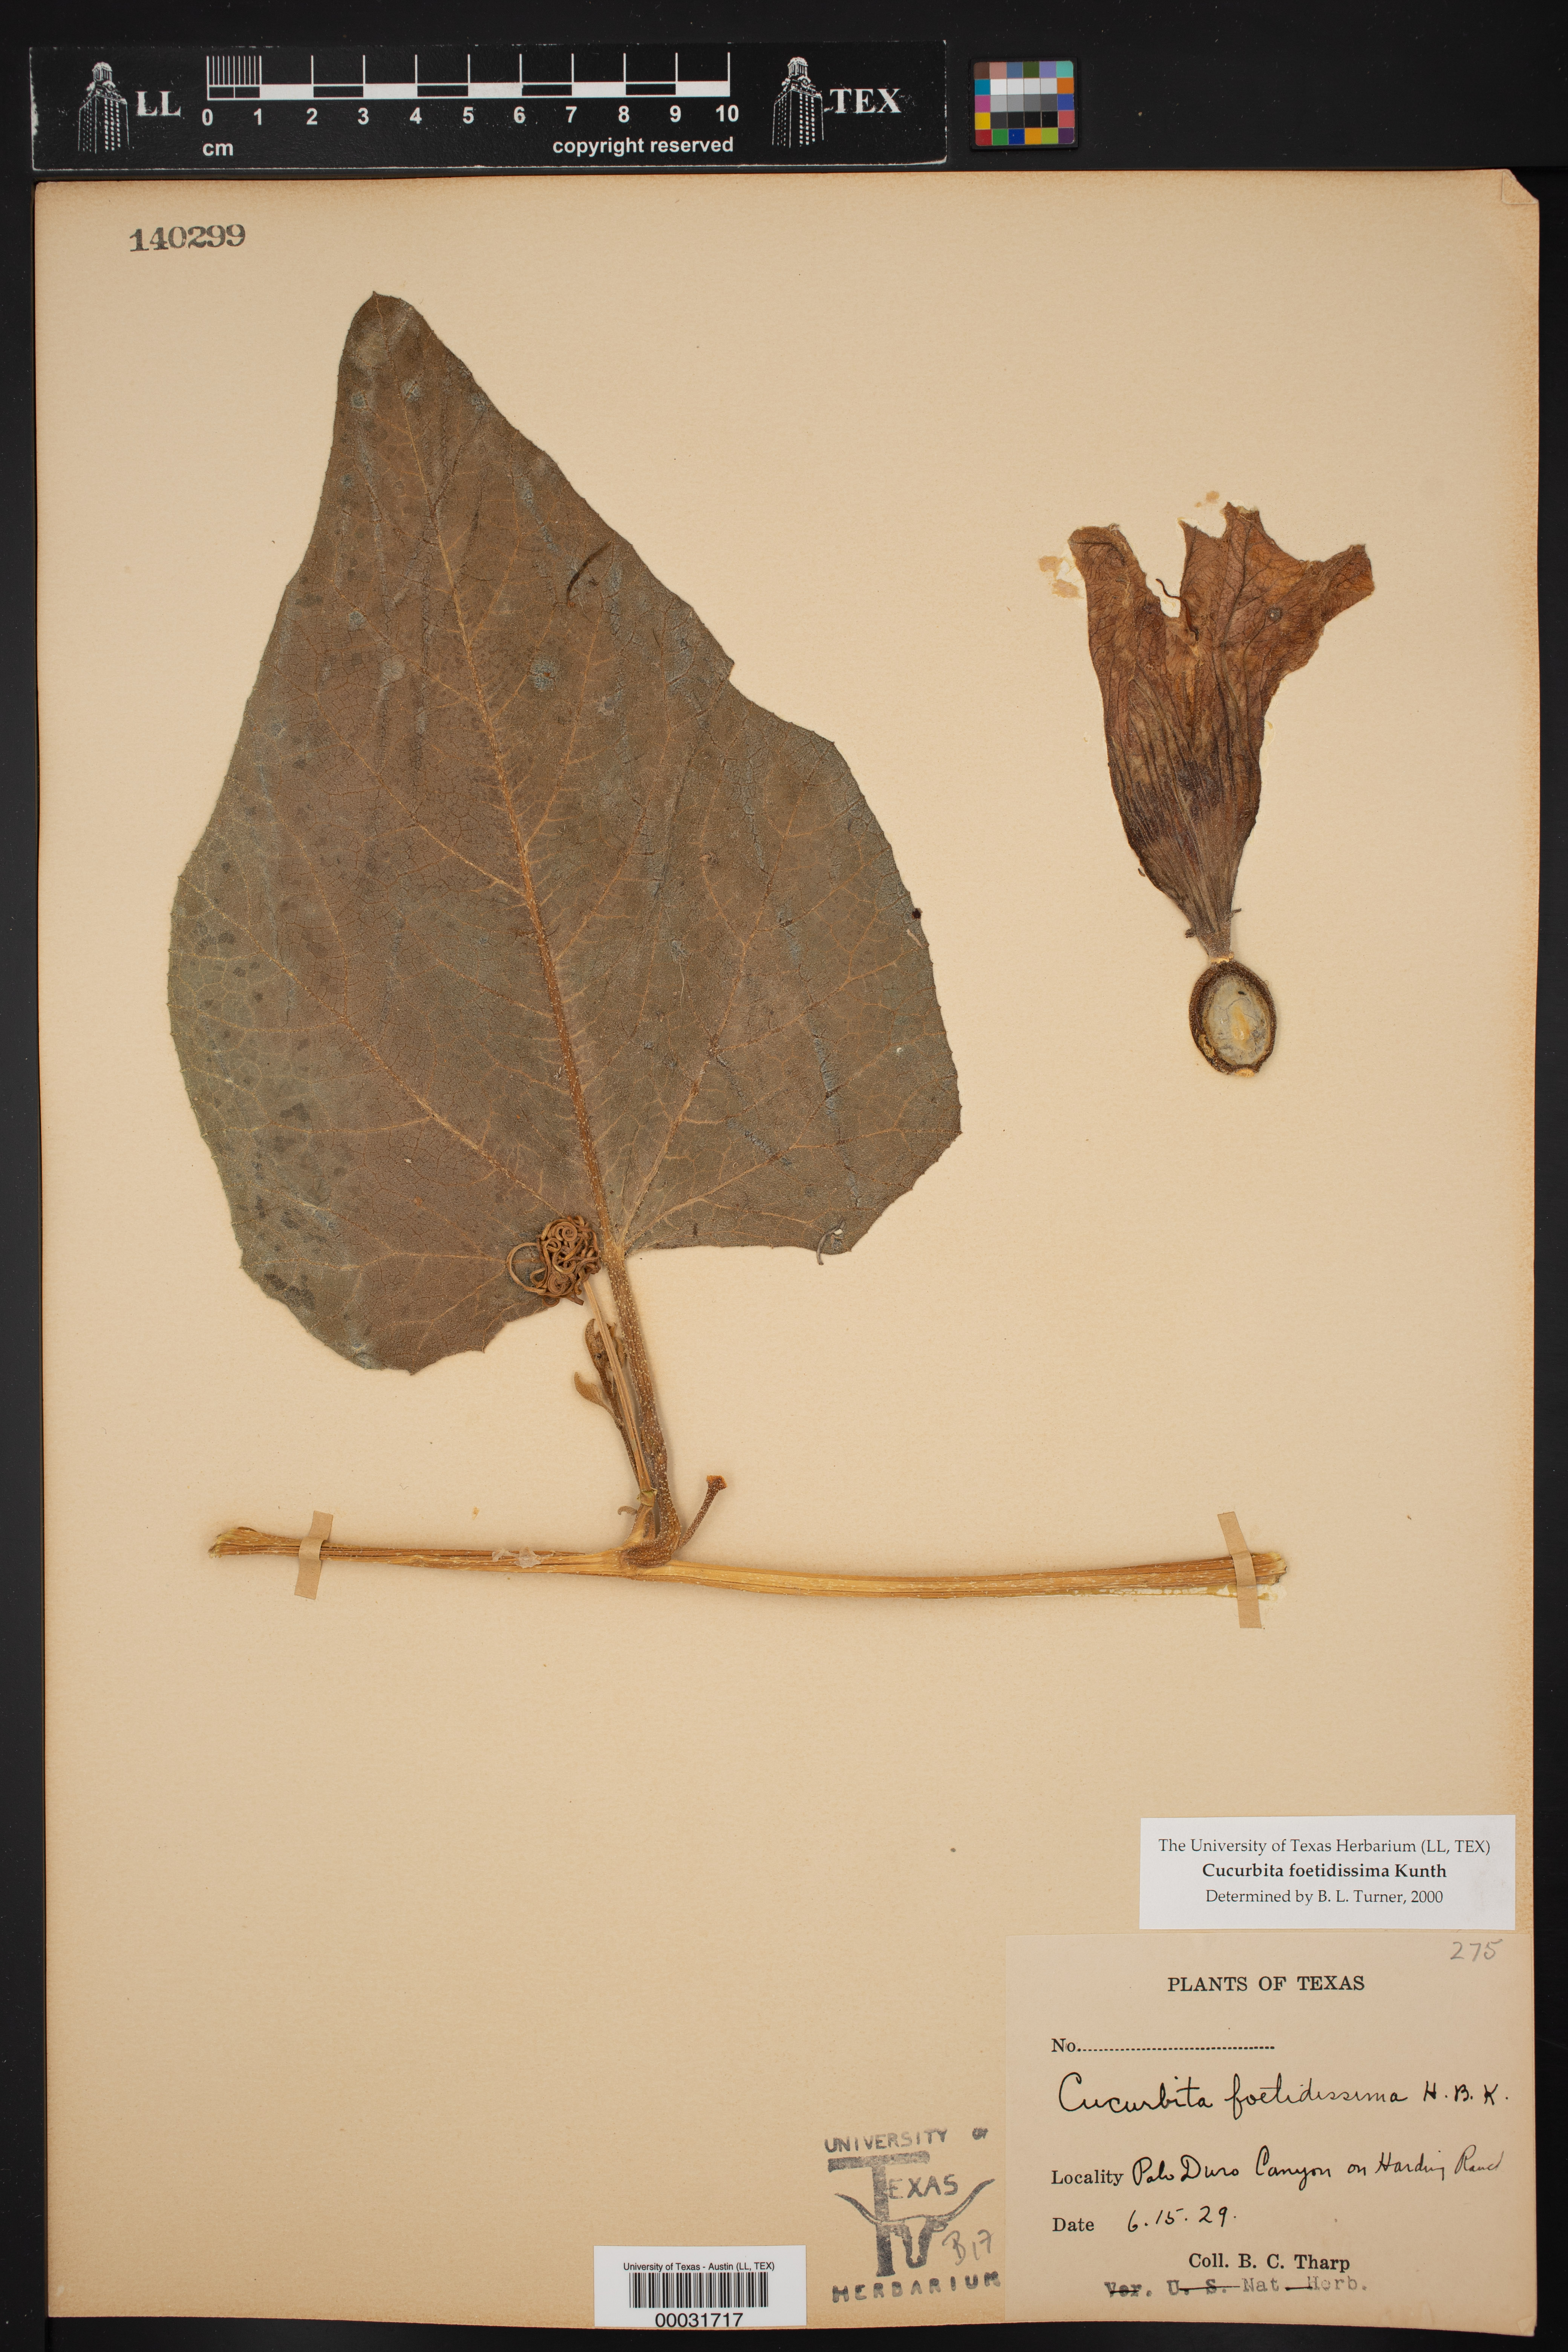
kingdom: Plantae
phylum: Tracheophyta
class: Magnoliopsida
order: Cucurbitales
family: Cucurbitaceae
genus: Cucurbita
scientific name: Cucurbita foetidissima
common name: Buffalo gourd
